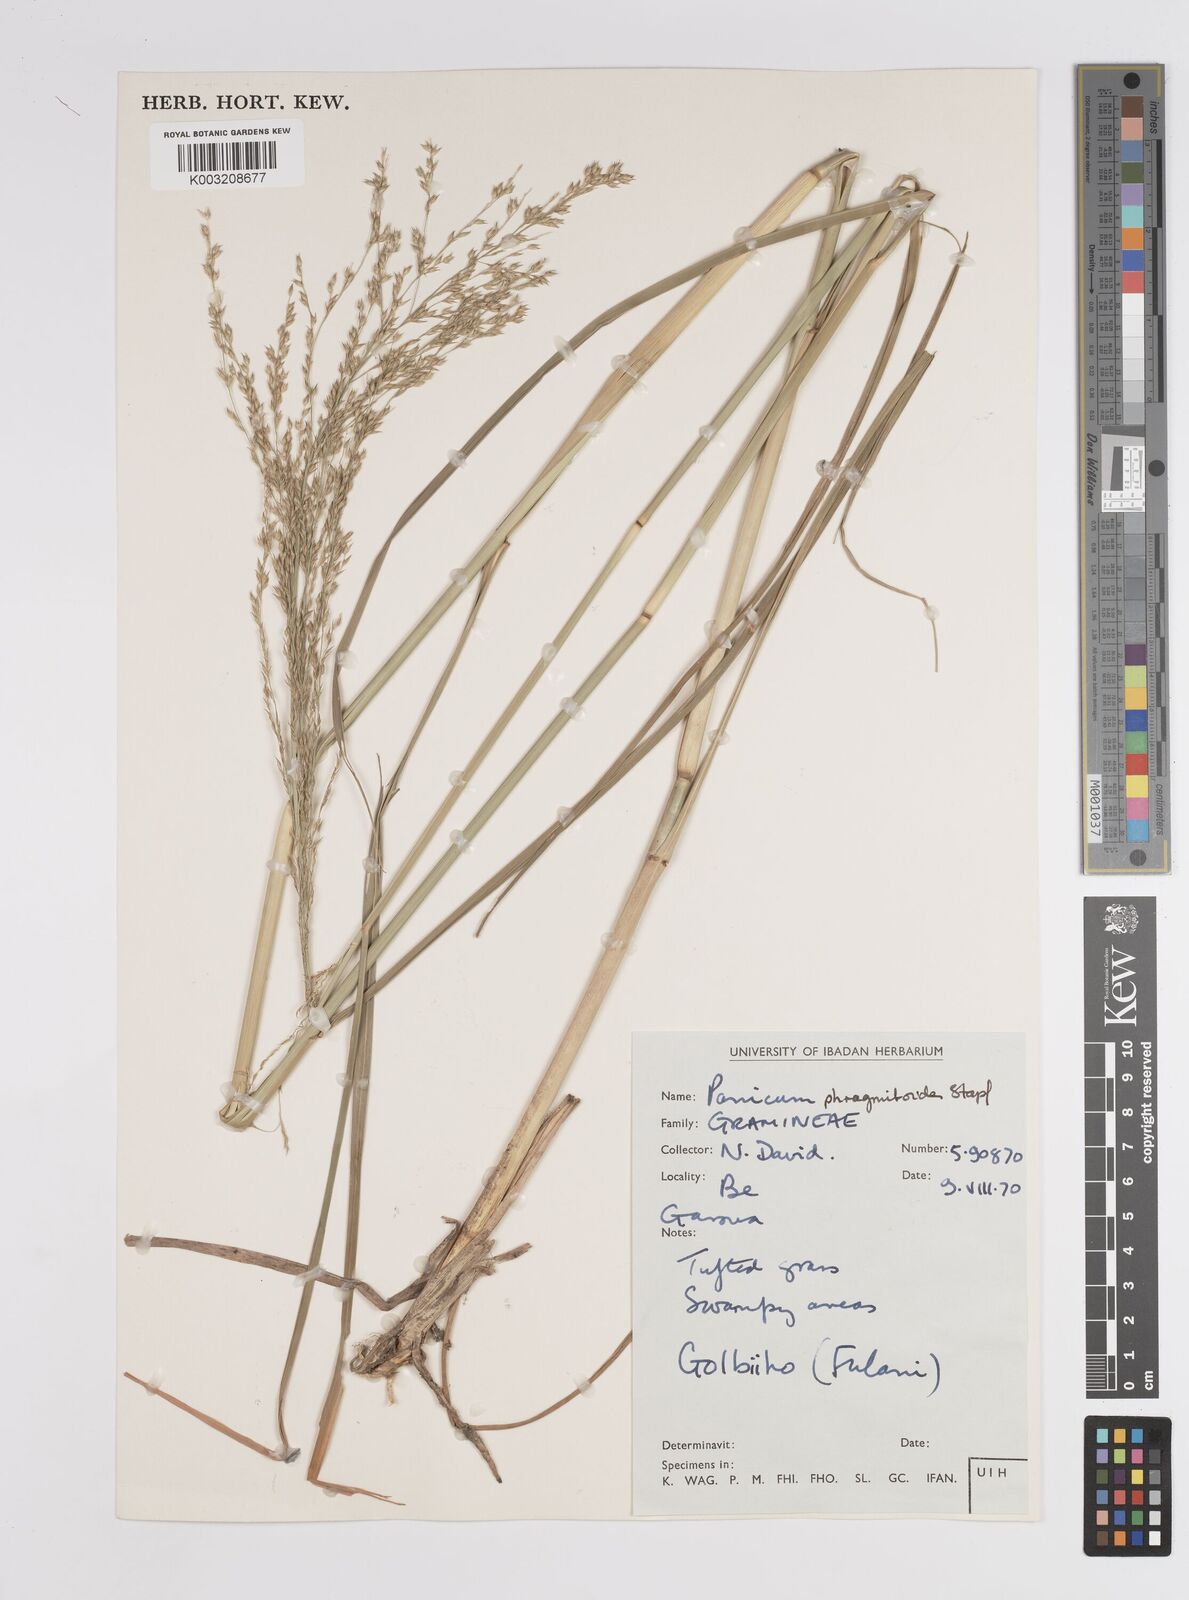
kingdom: Plantae
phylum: Tracheophyta
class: Liliopsida
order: Poales
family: Poaceae
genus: Panicum
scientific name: Panicum phragmitoides
